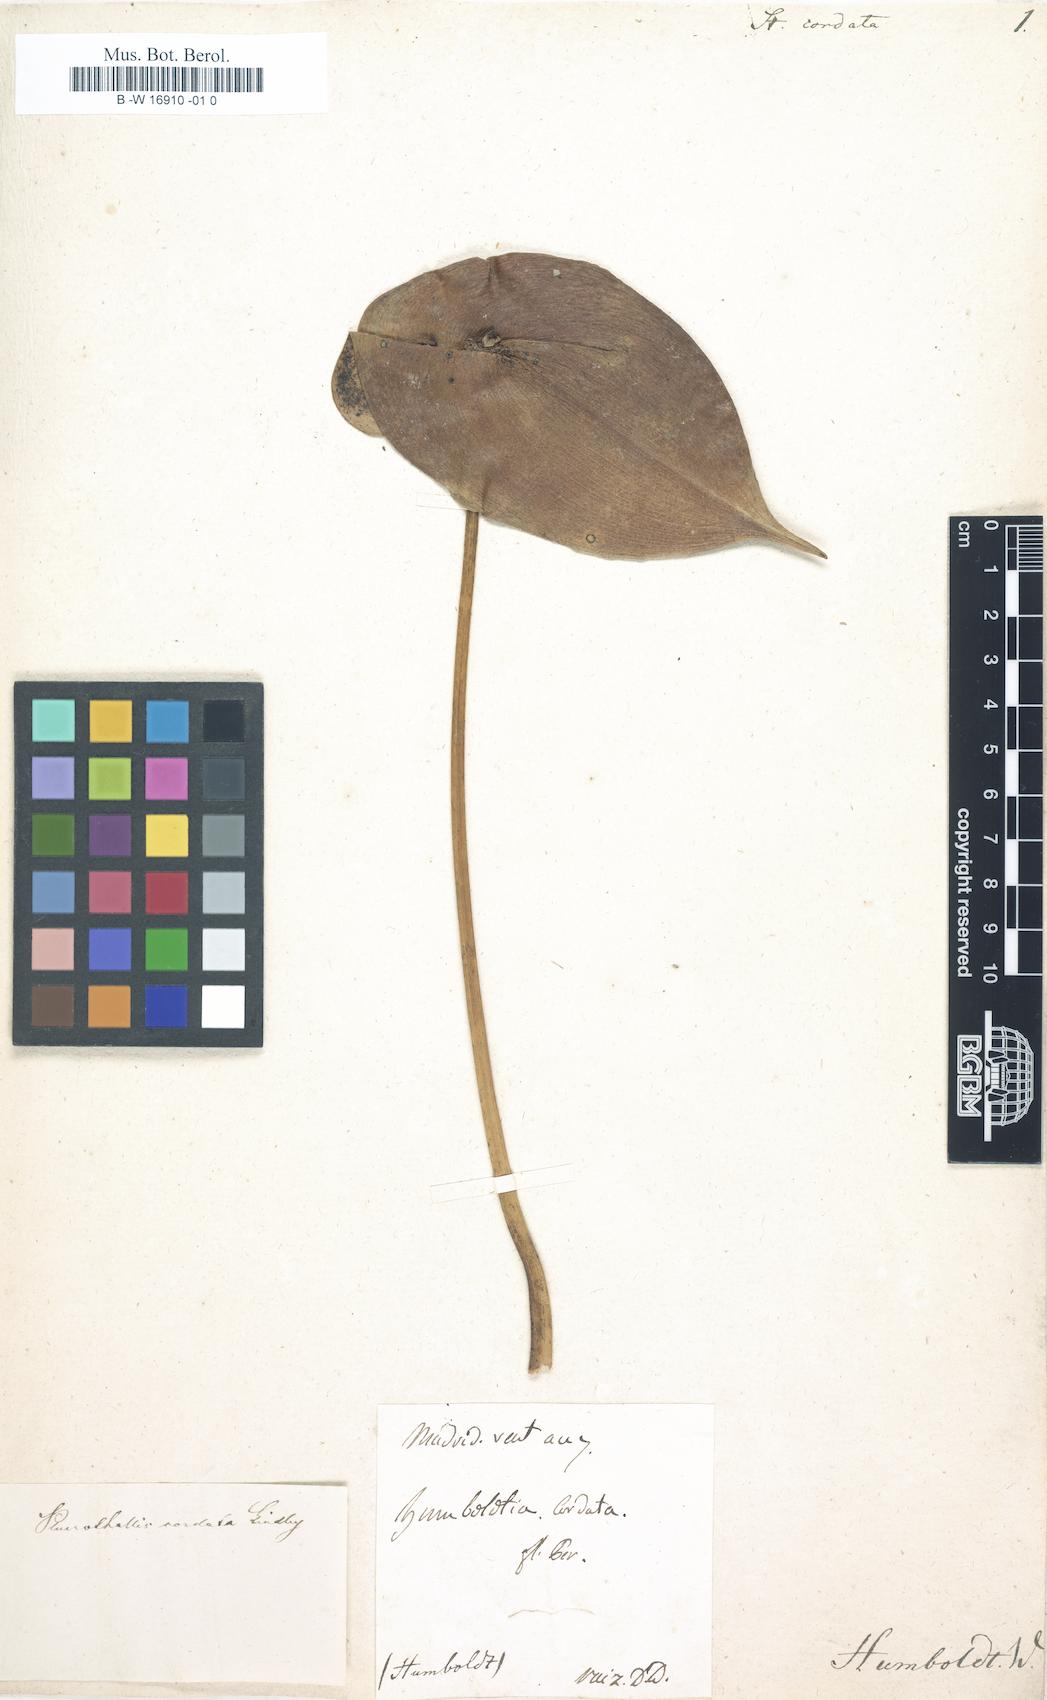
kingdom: Plantae
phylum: Tracheophyta
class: Liliopsida
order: Asparagales
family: Orchidaceae
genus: Pleurothallis
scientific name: Pleurothallis cordata
